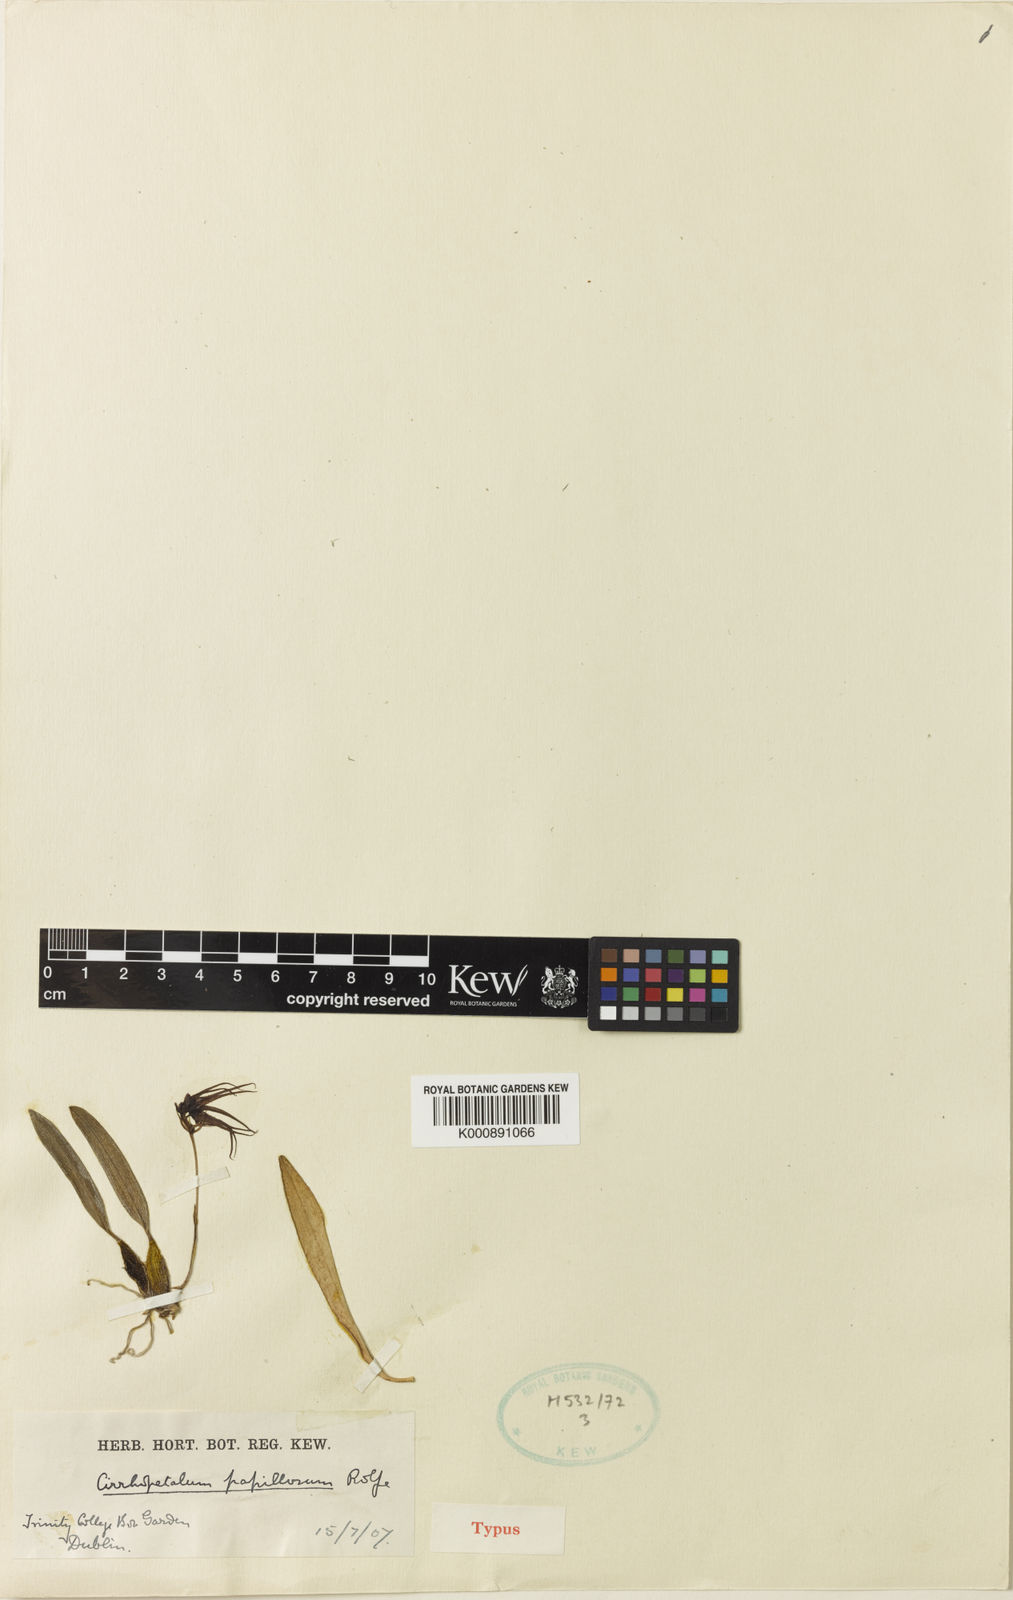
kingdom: Plantae
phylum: Tracheophyta
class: Liliopsida
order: Asparagales
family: Orchidaceae
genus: Bulbophyllum
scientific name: Bulbophyllum sutepense
